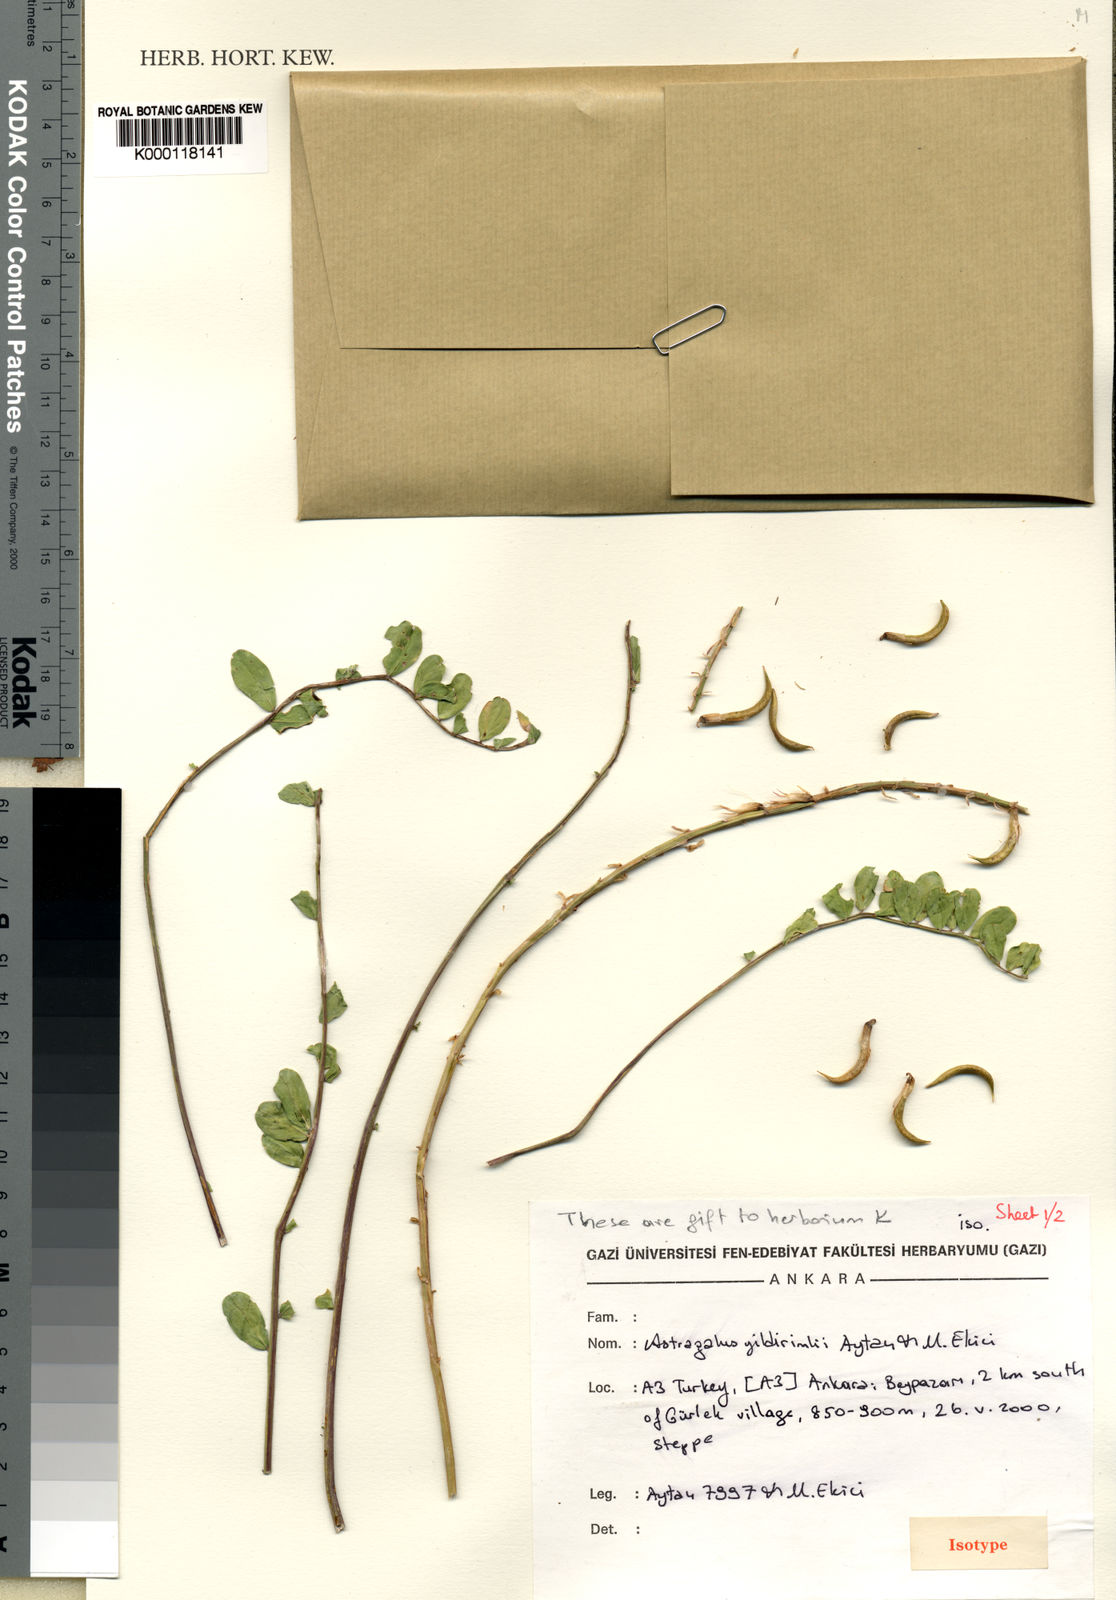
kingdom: Plantae
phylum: Tracheophyta
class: Magnoliopsida
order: Fabales
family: Fabaceae
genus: Astragalus
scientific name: Astragalus
